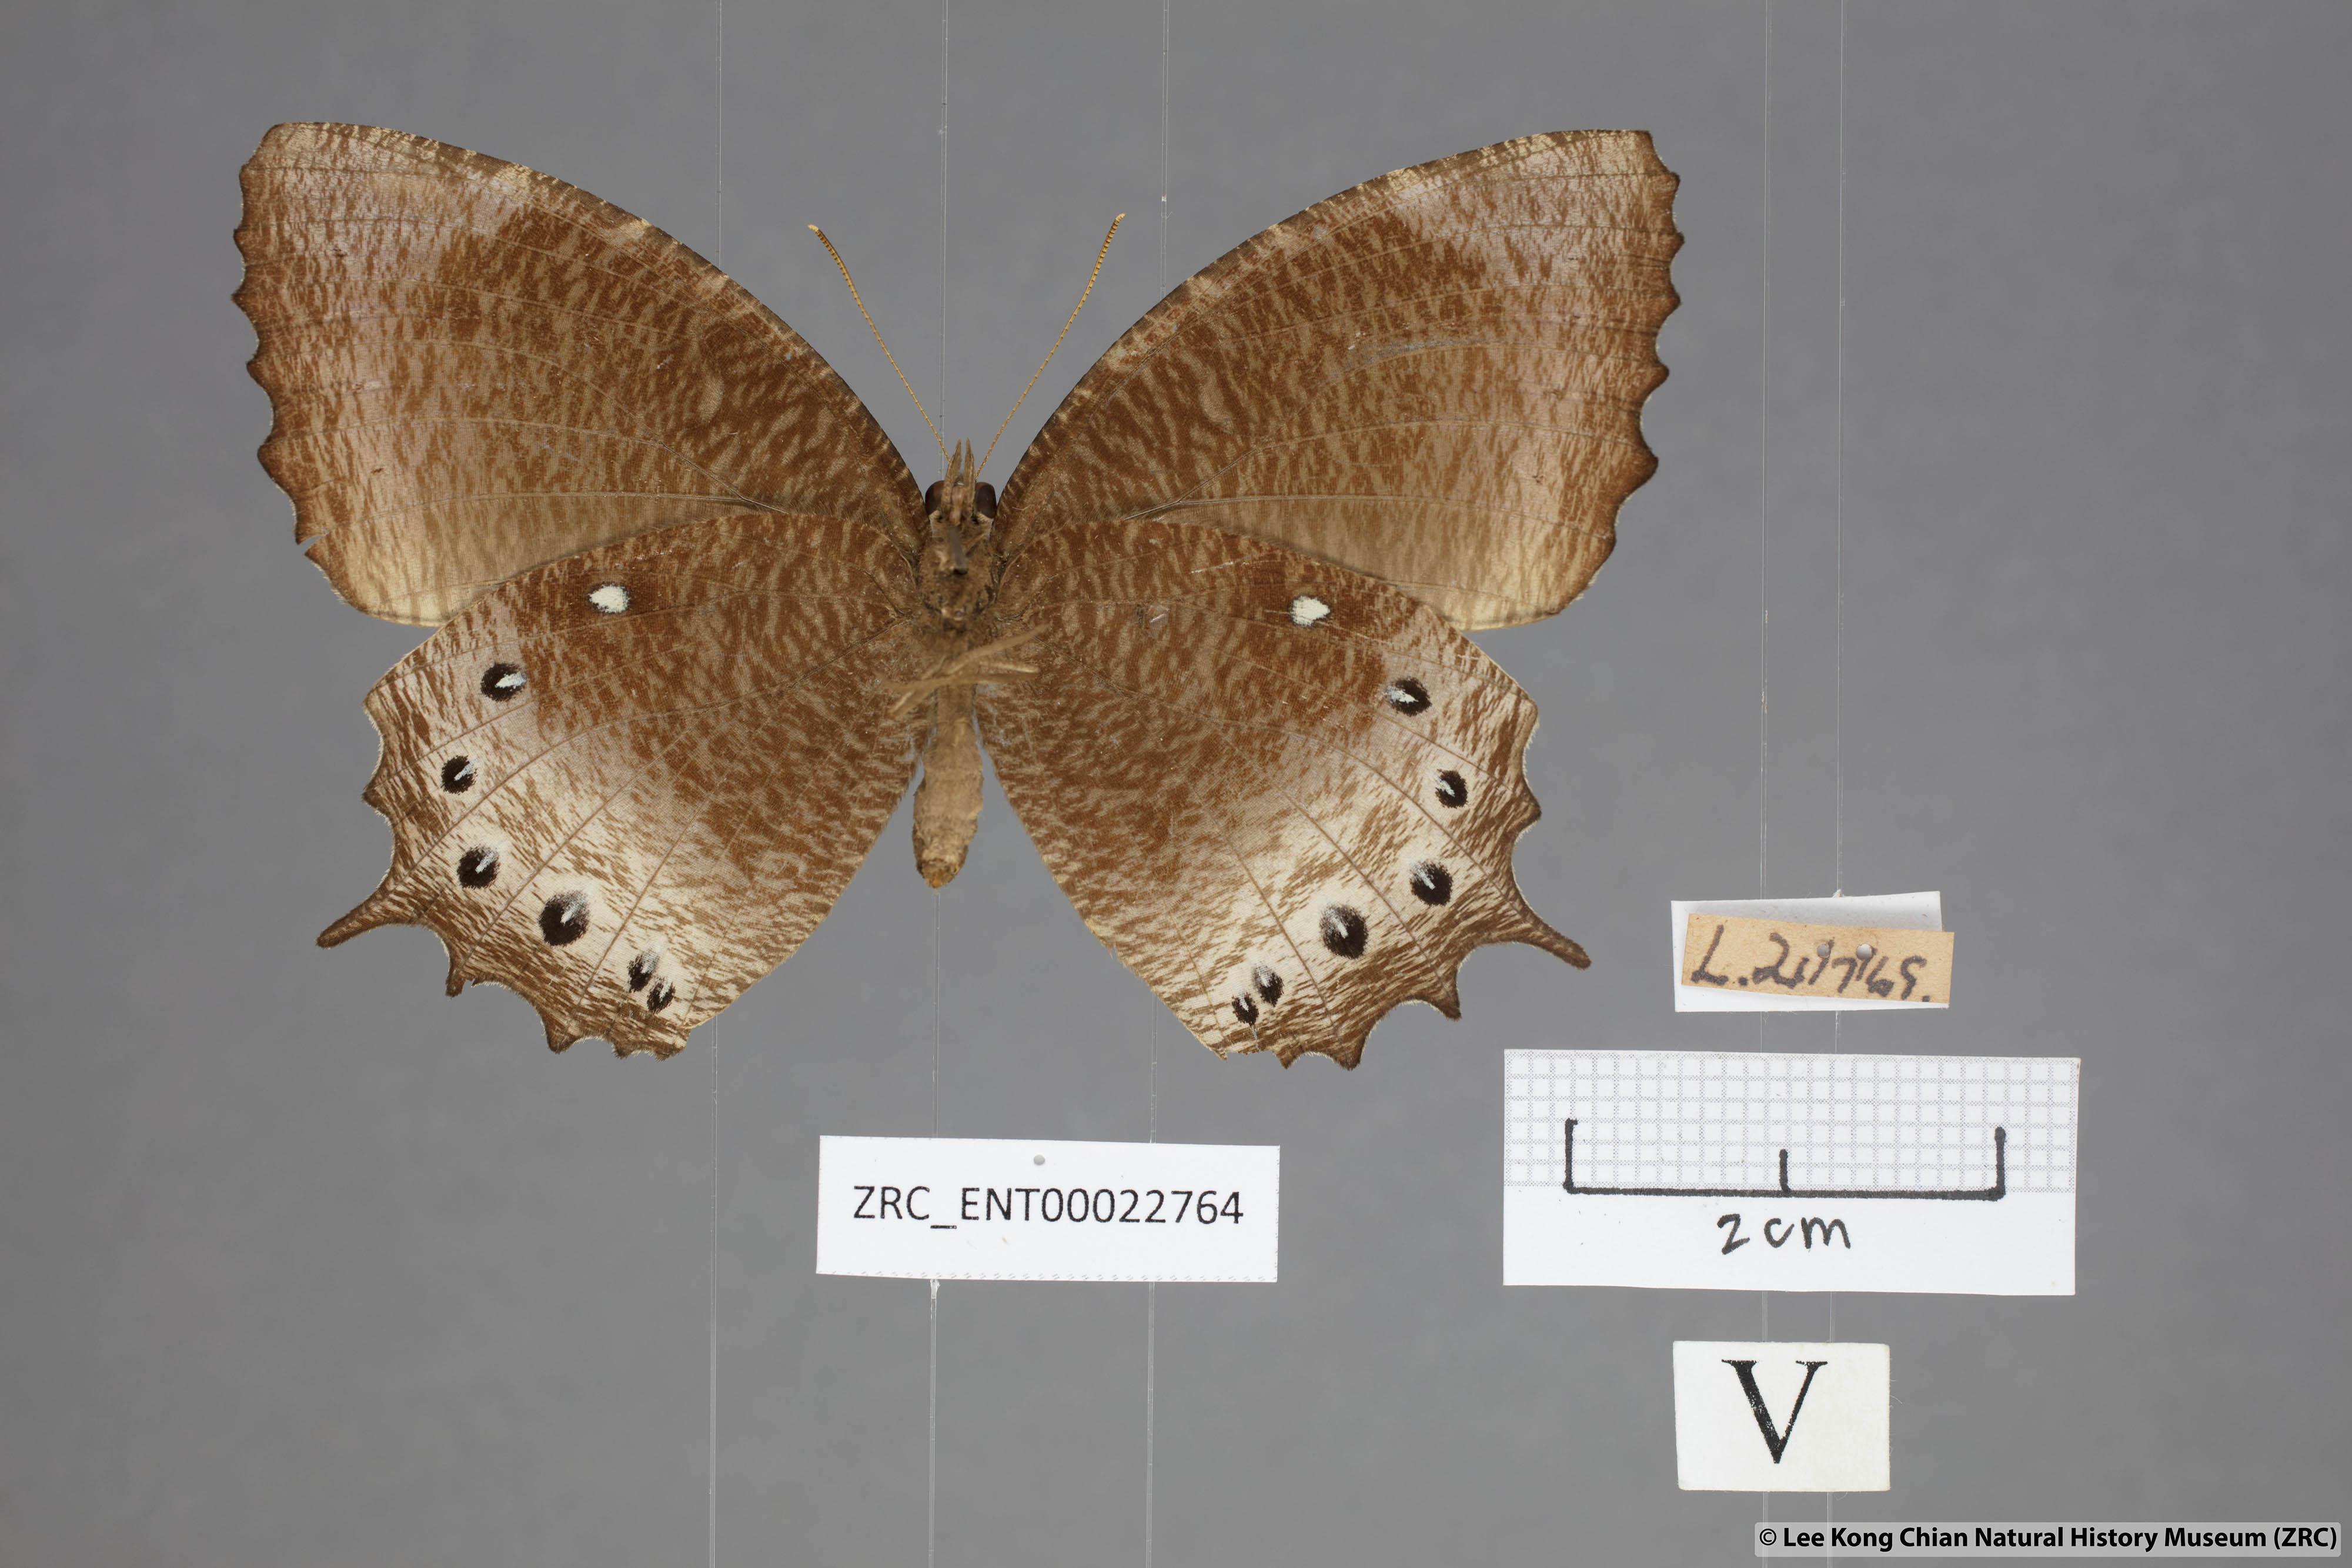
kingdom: Animalia
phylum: Arthropoda
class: Insecta
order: Lepidoptera
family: Nymphalidae
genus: Elymnias
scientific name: Elymnias panthera
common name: Tawny palmfly
